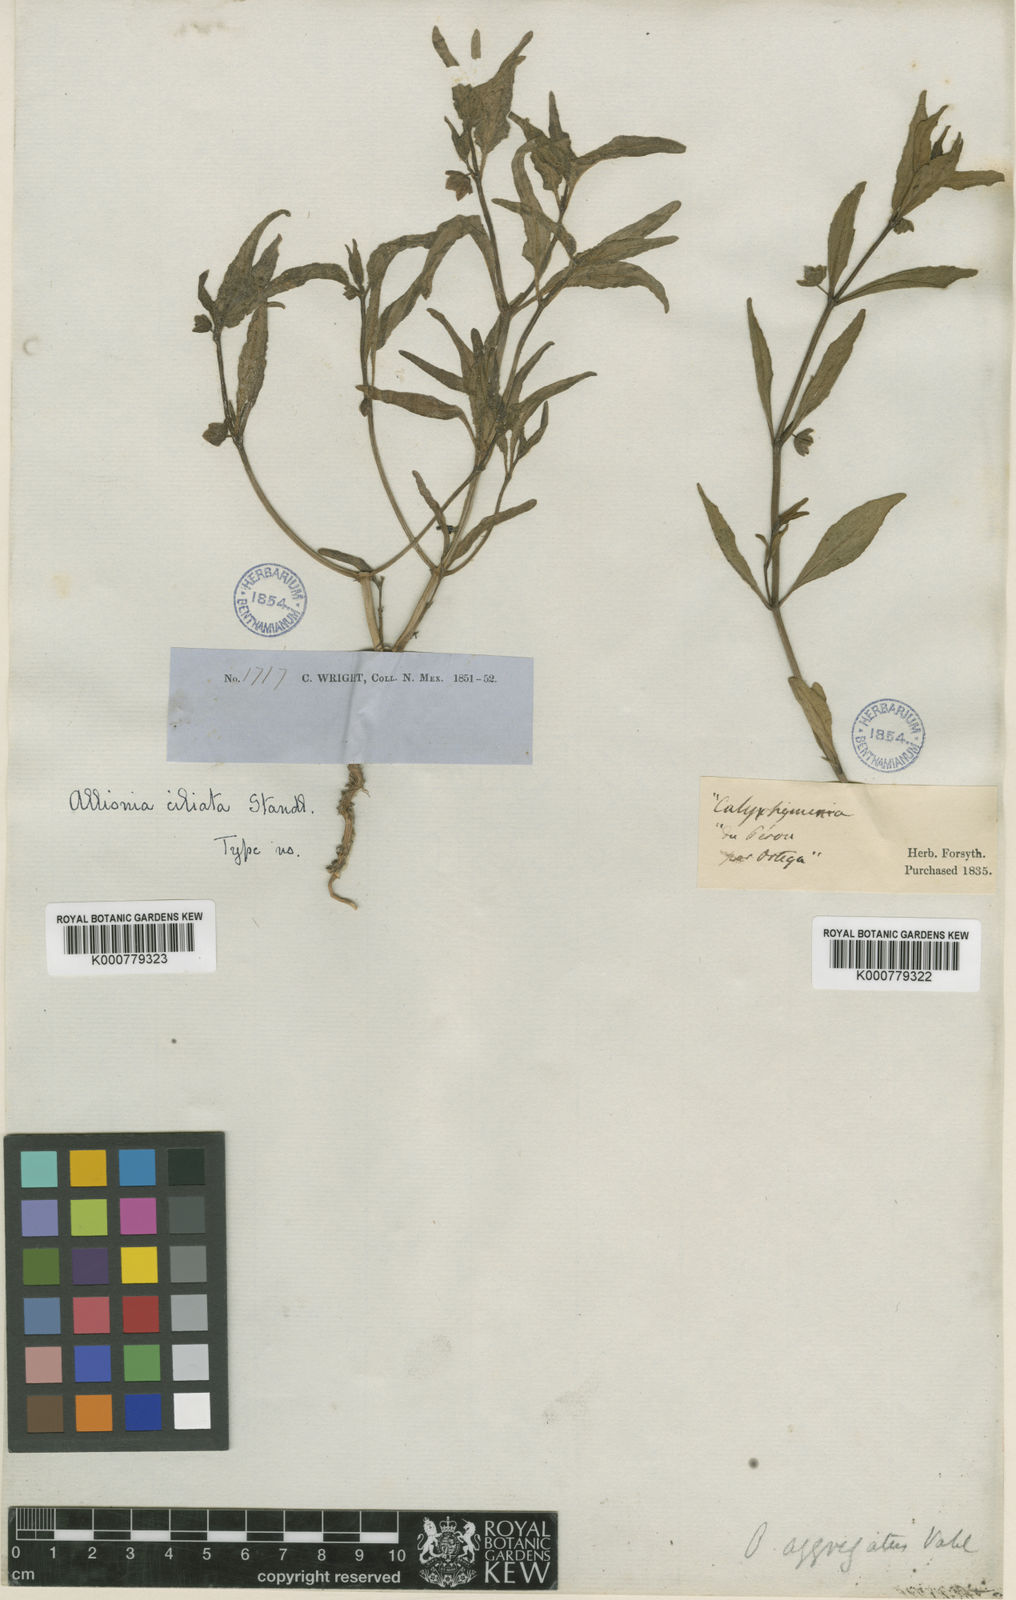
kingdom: Plantae
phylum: Tracheophyta
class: Magnoliopsida
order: Caryophyllales
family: Nyctaginaceae
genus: Mirabilis
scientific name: Mirabilis albida
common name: Hairy four-o'clock
